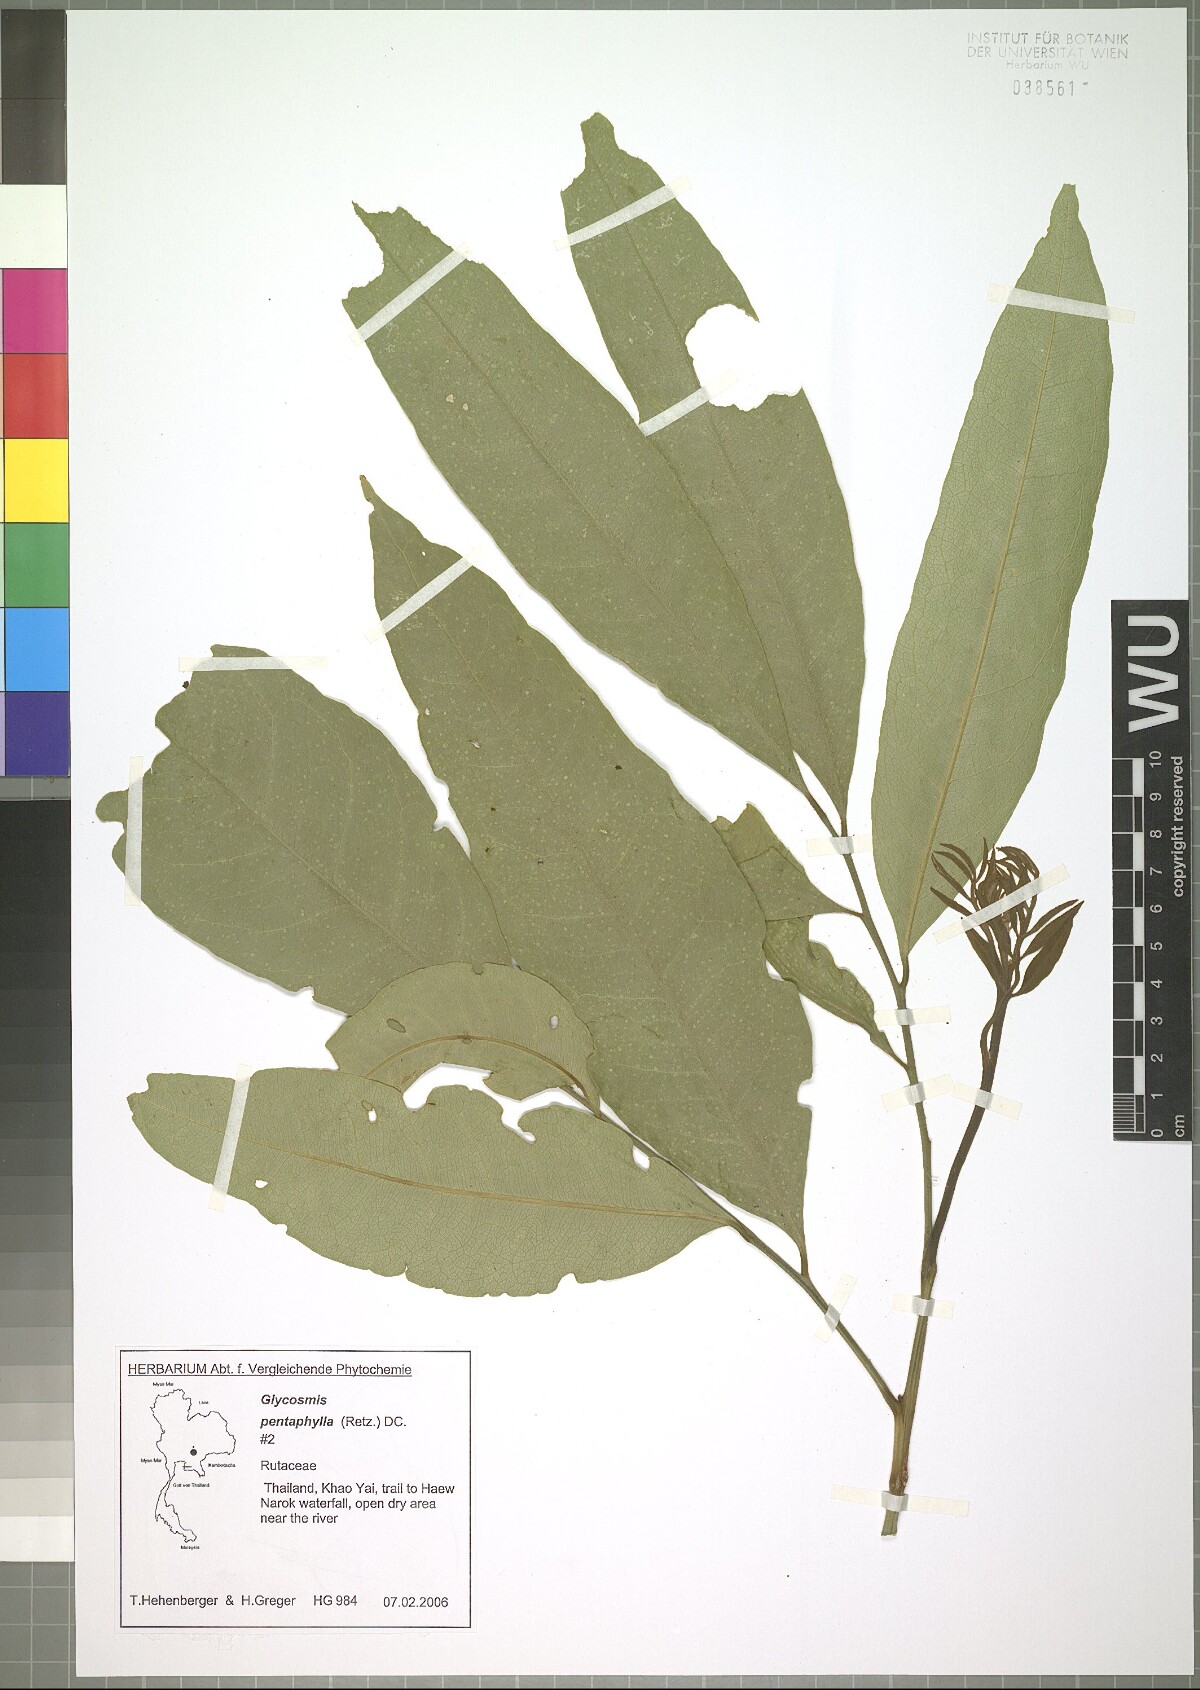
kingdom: Plantae
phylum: Tracheophyta
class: Magnoliopsida
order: Sapindales
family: Rutaceae
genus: Glycosmis
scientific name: Glycosmis pentaphylla
